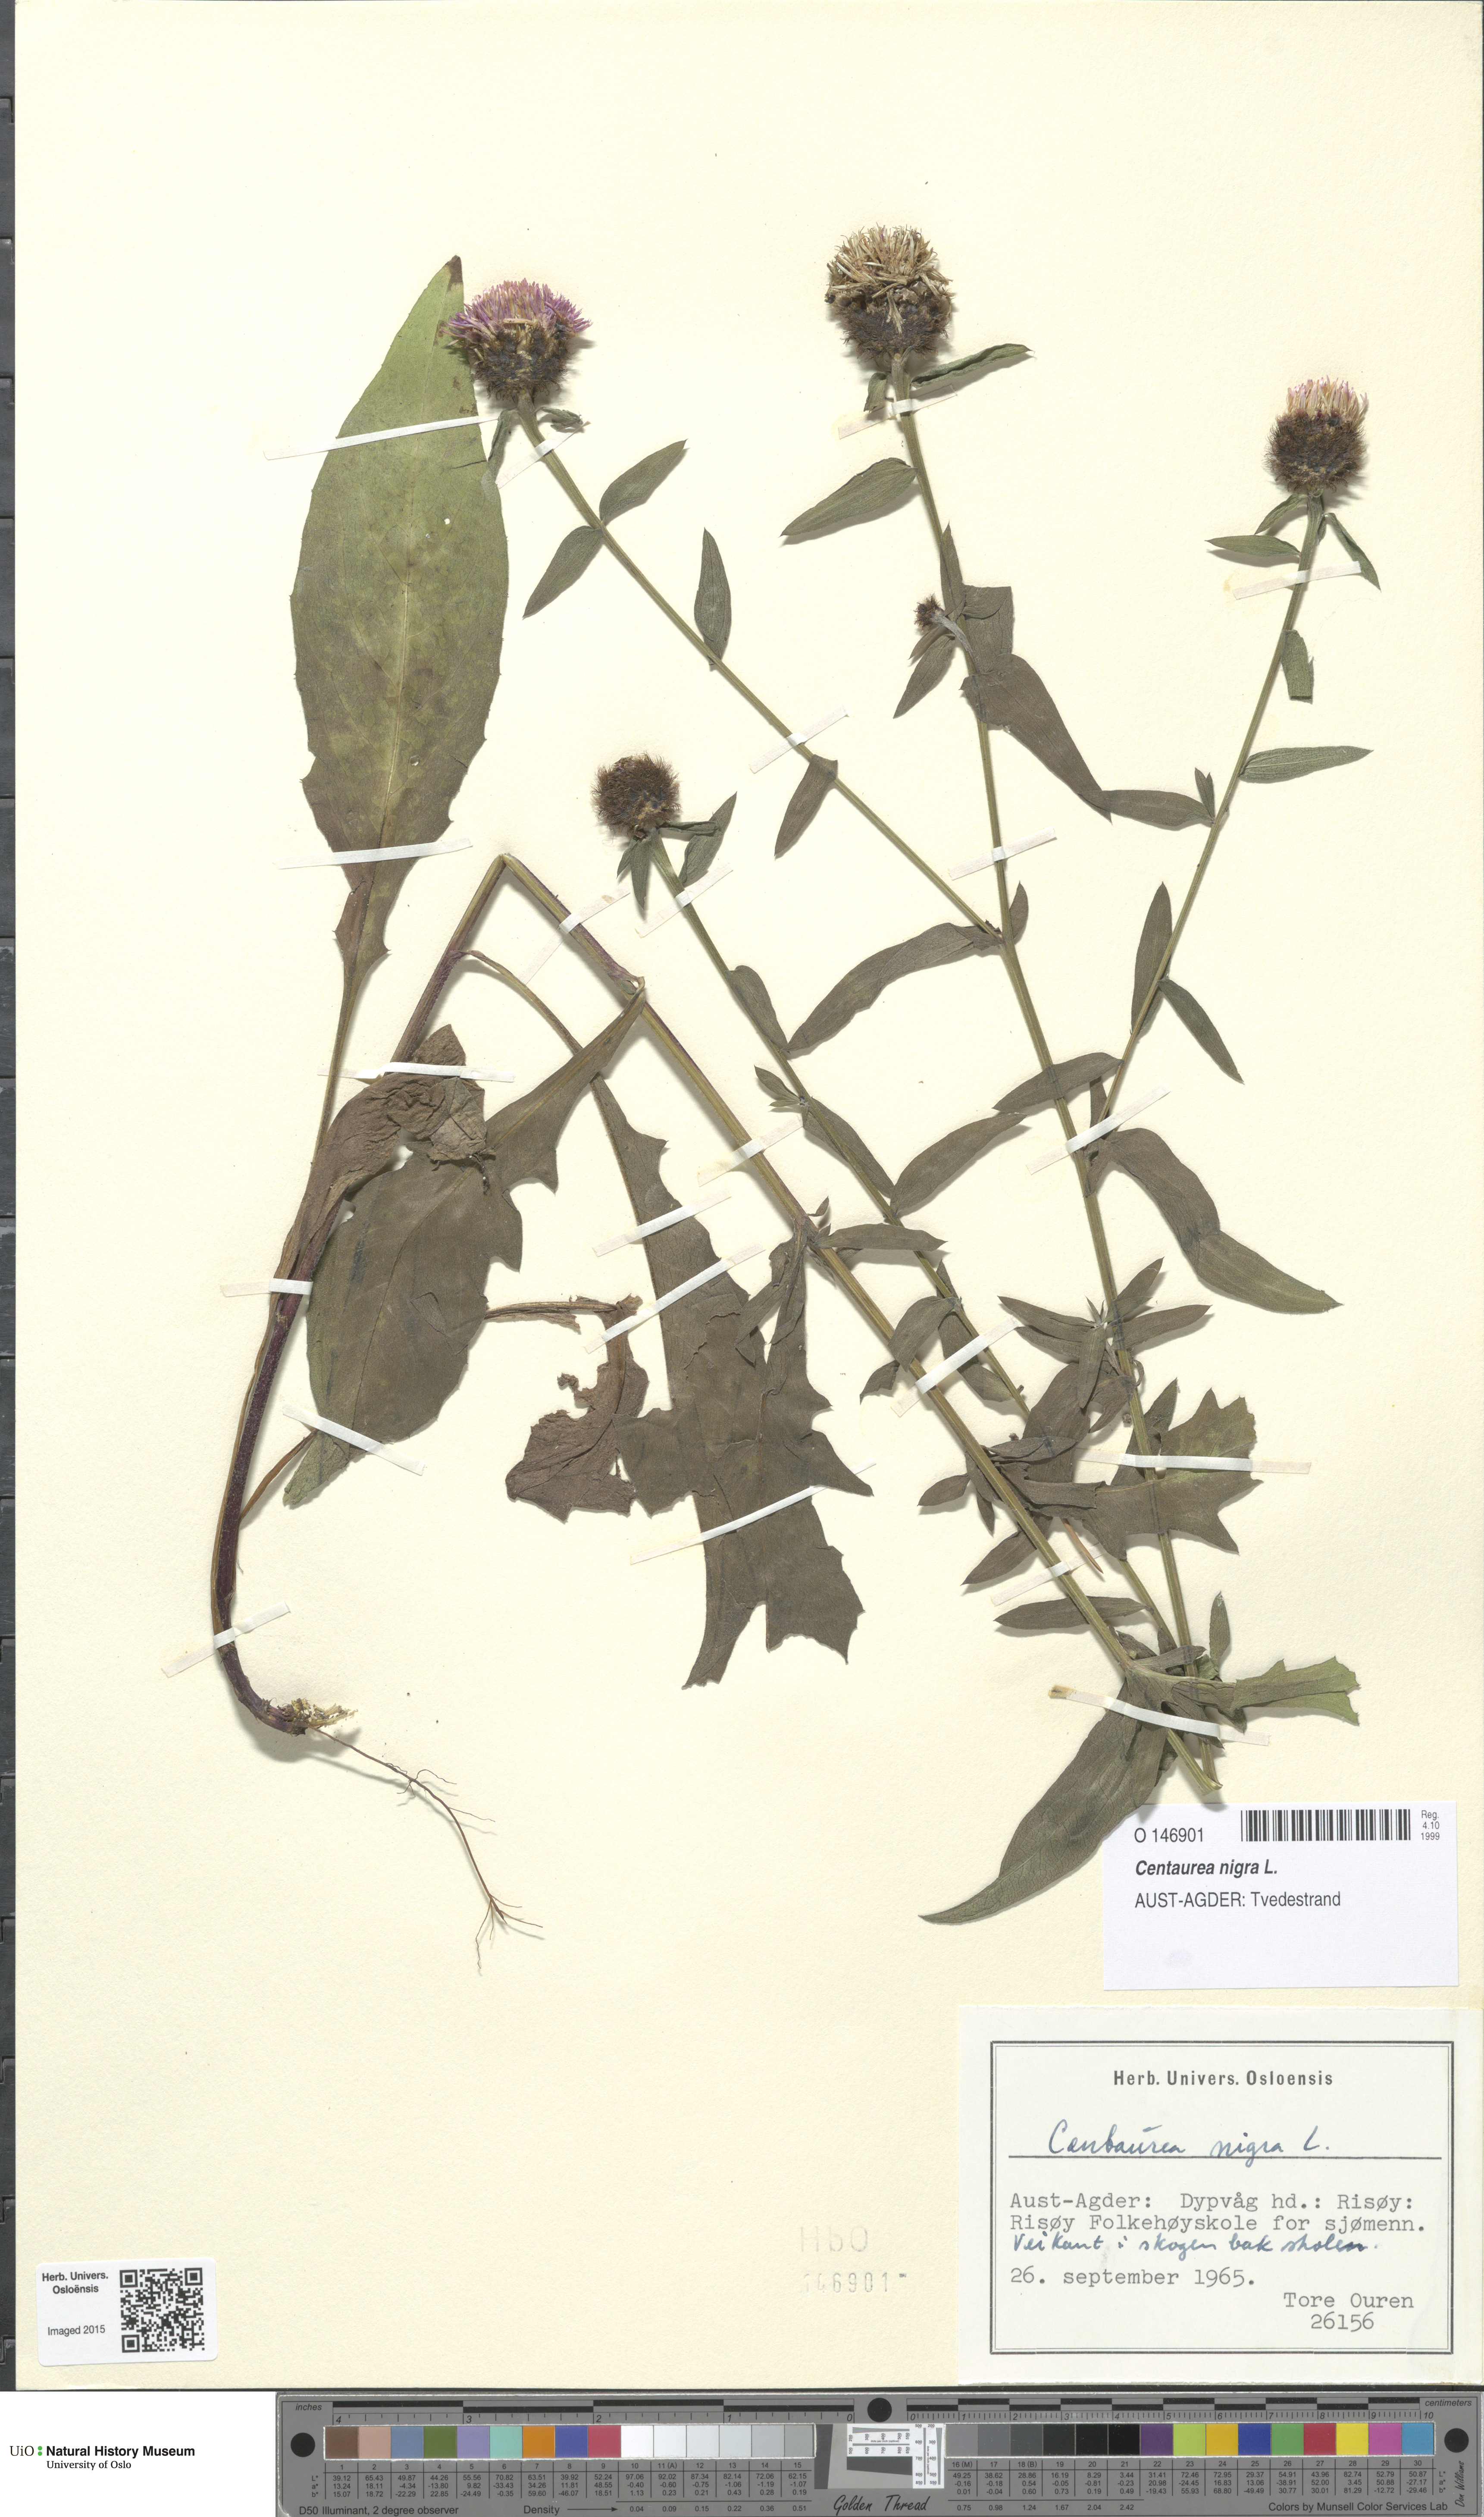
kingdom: Plantae
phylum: Tracheophyta
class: Magnoliopsida
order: Asterales
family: Asteraceae
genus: Centaurea
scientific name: Centaurea nigra
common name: Lesser knapweed
